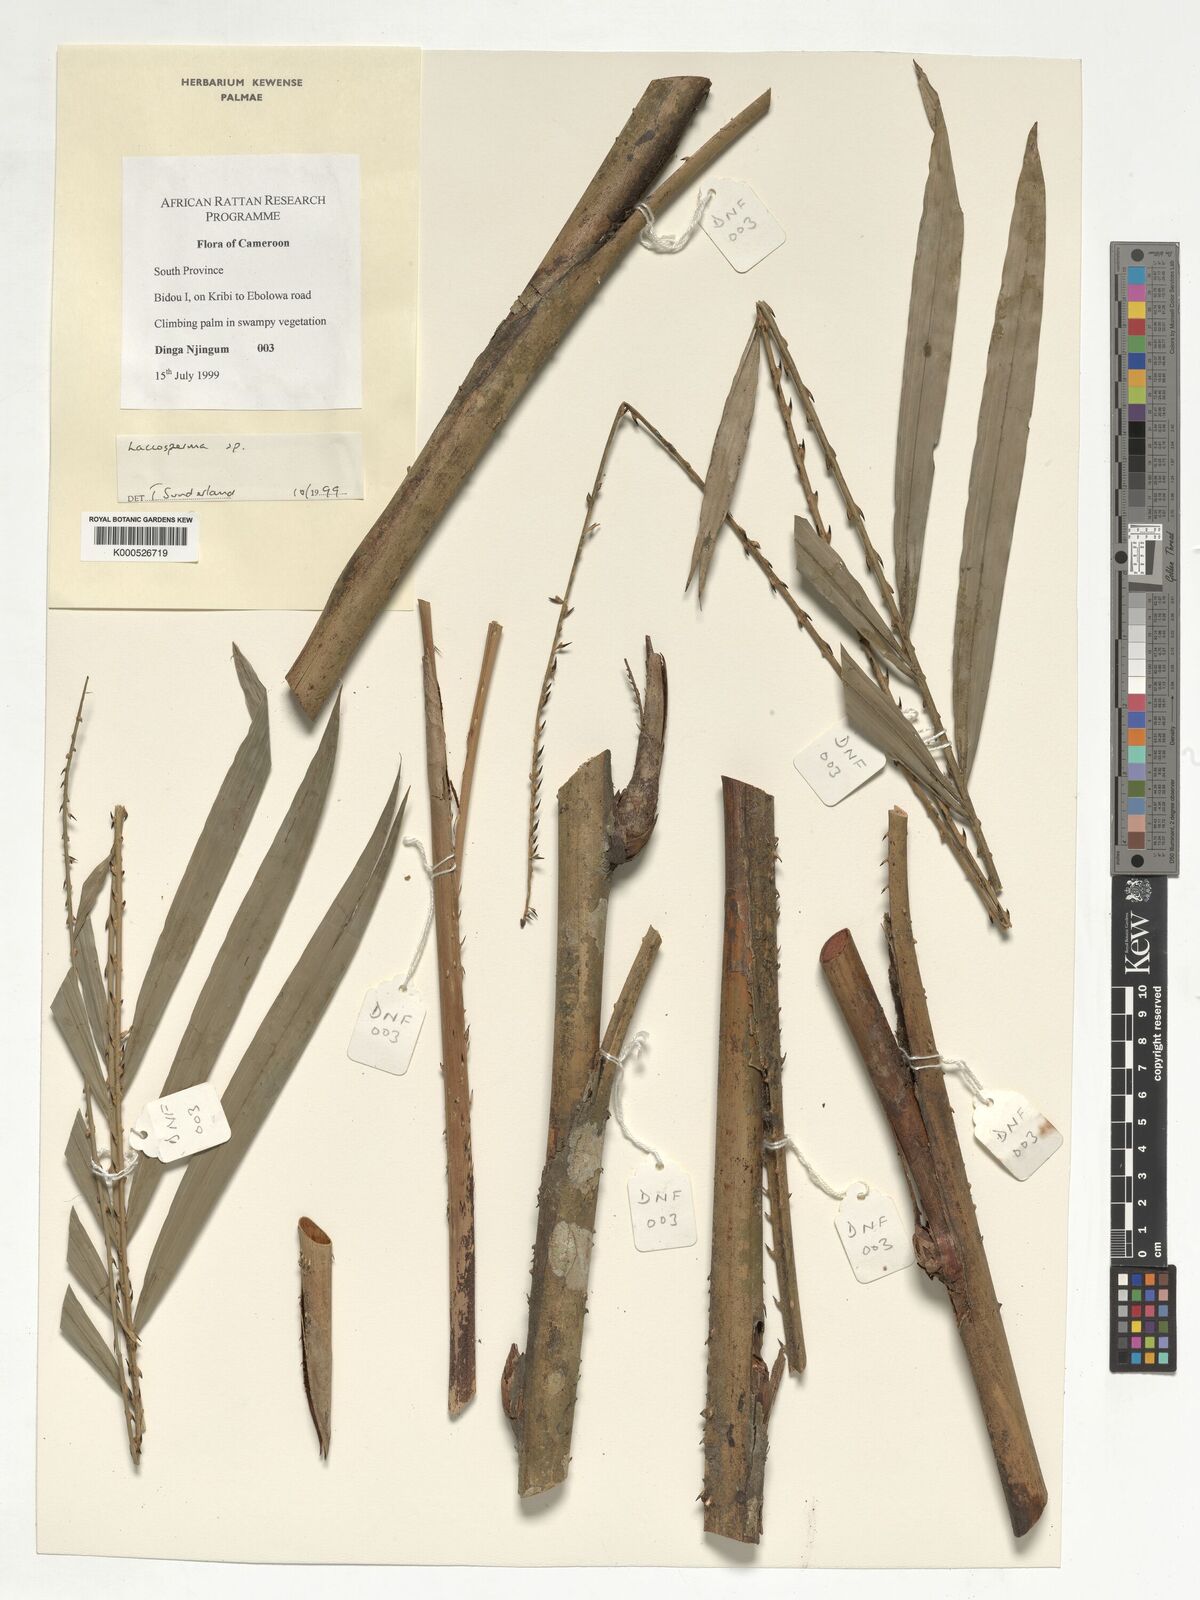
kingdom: Plantae
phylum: Tracheophyta
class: Liliopsida
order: Arecales
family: Arecaceae
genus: Laccosperma
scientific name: Laccosperma
